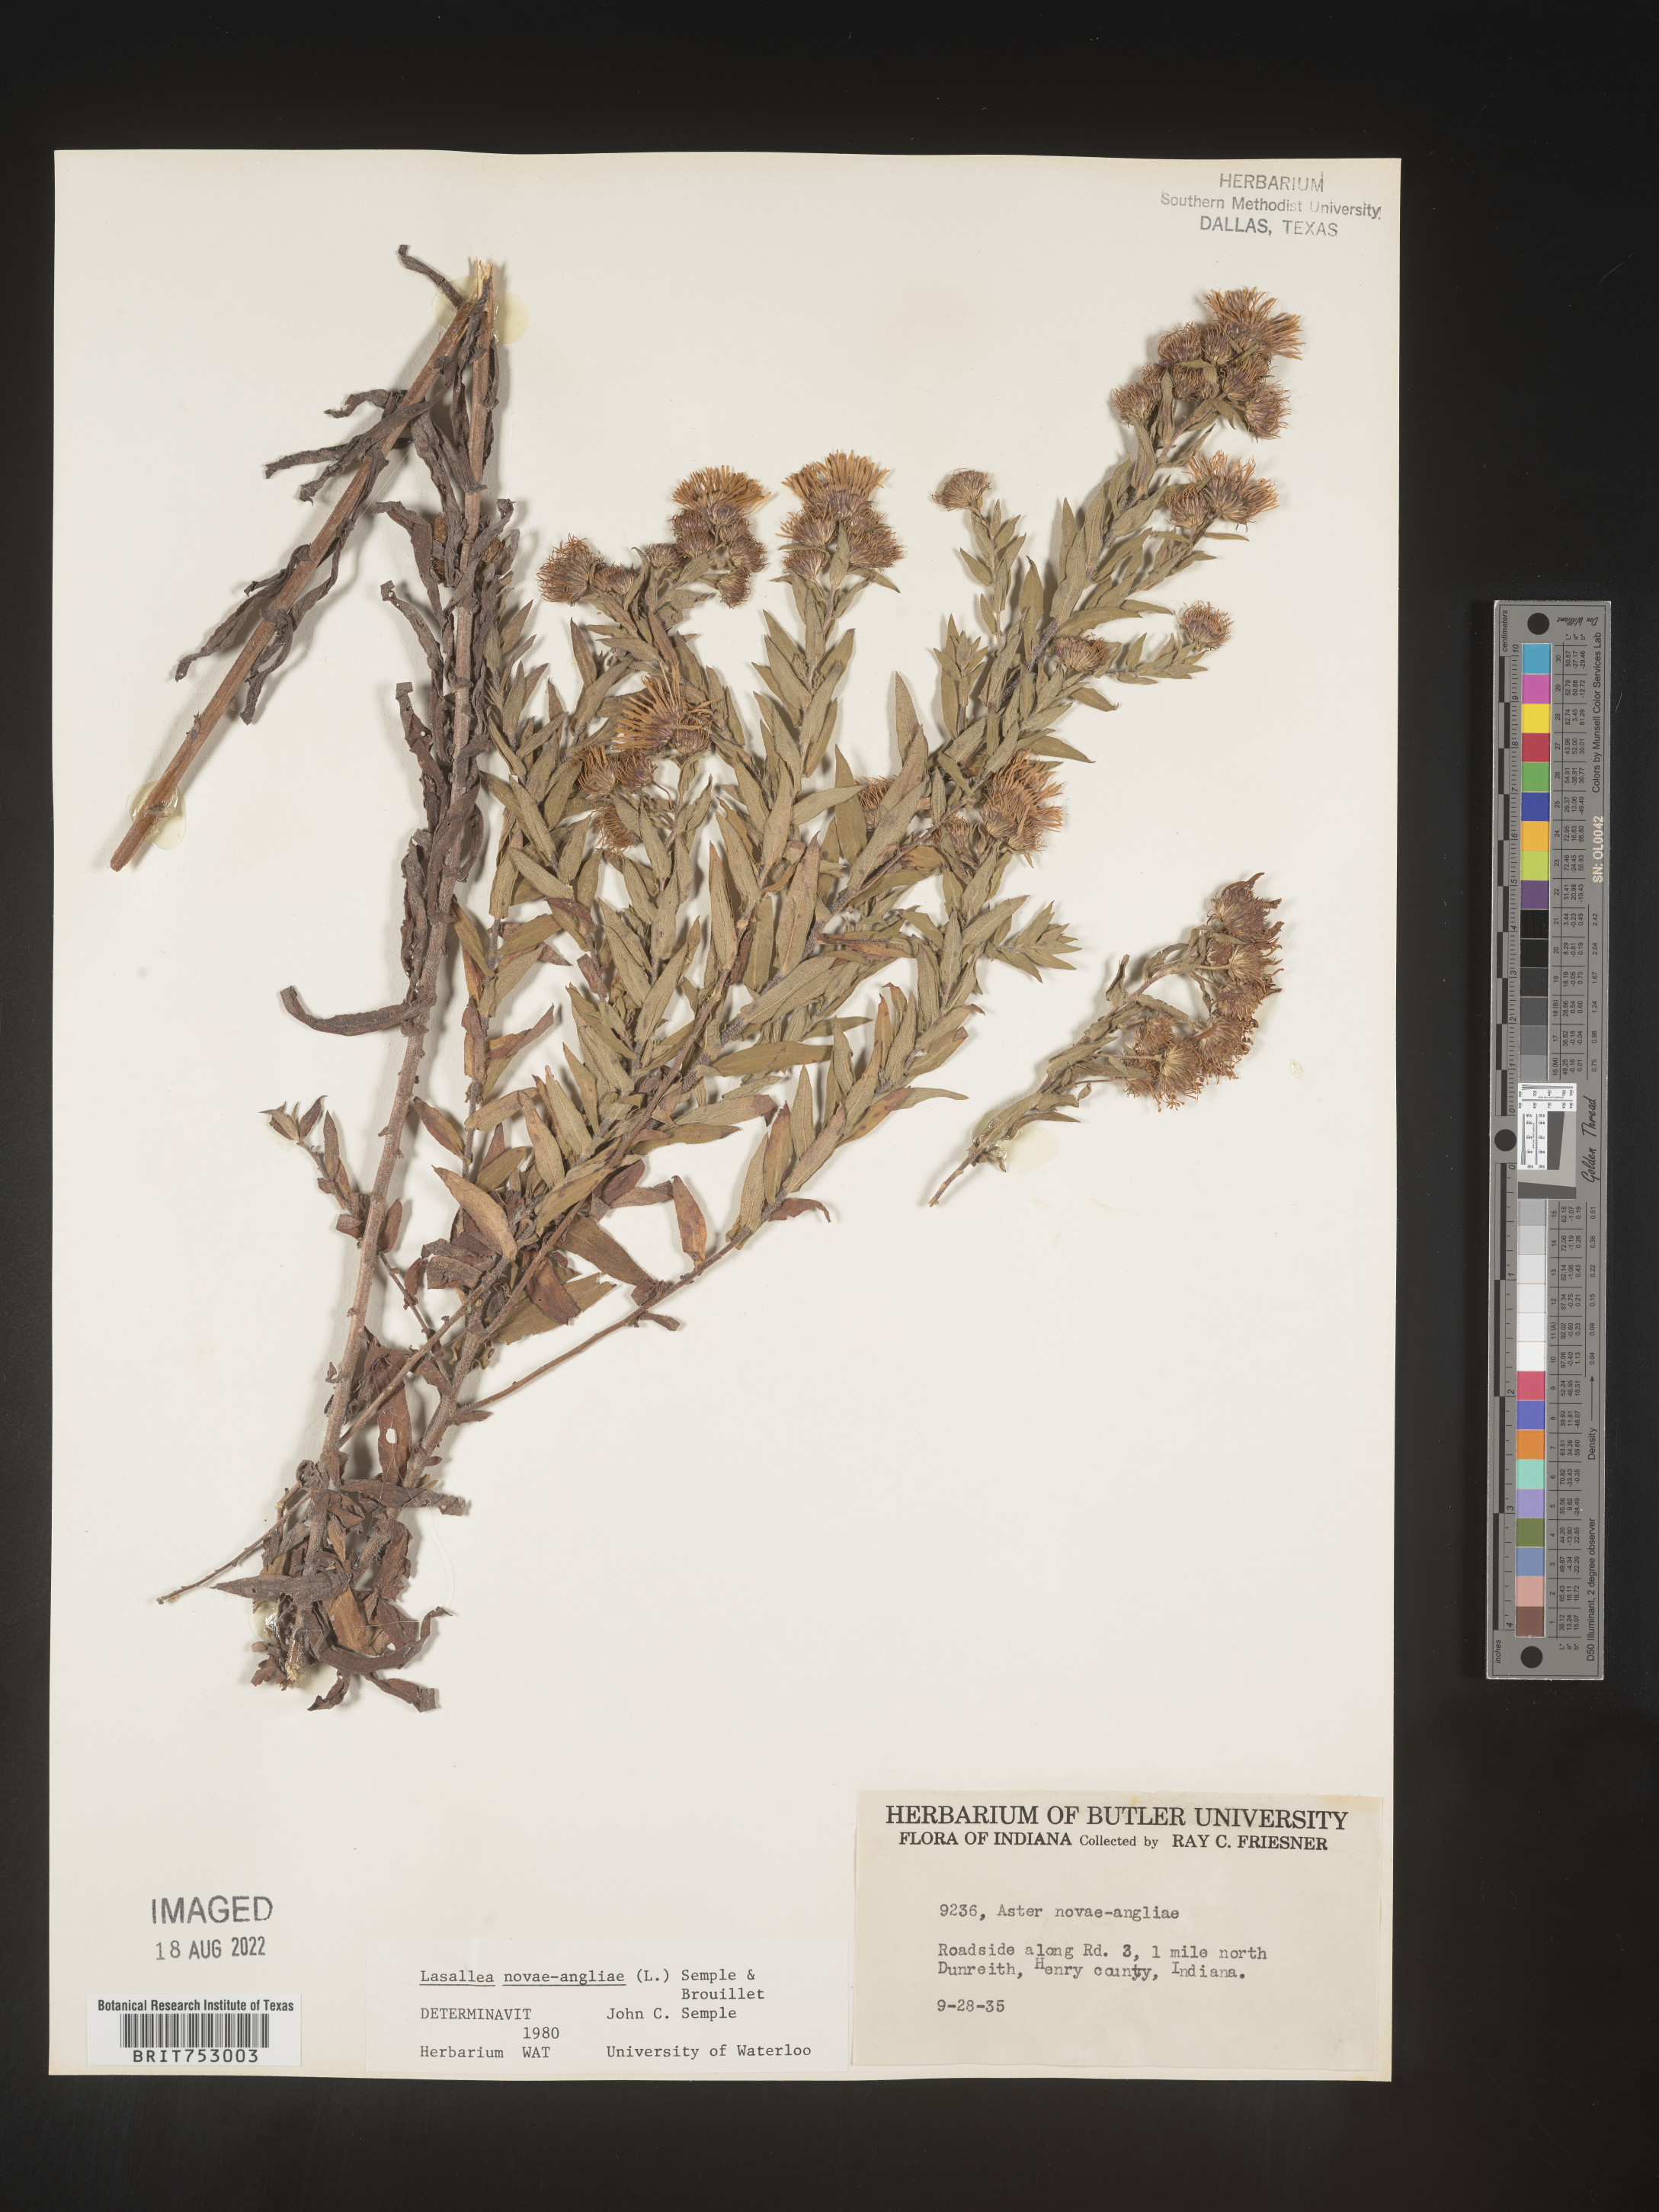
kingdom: Plantae
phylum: Tracheophyta
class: Magnoliopsida
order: Asterales
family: Asteraceae
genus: Symphyotrichum
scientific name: Symphyotrichum novae-angliae
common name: Michaelmas daisy
